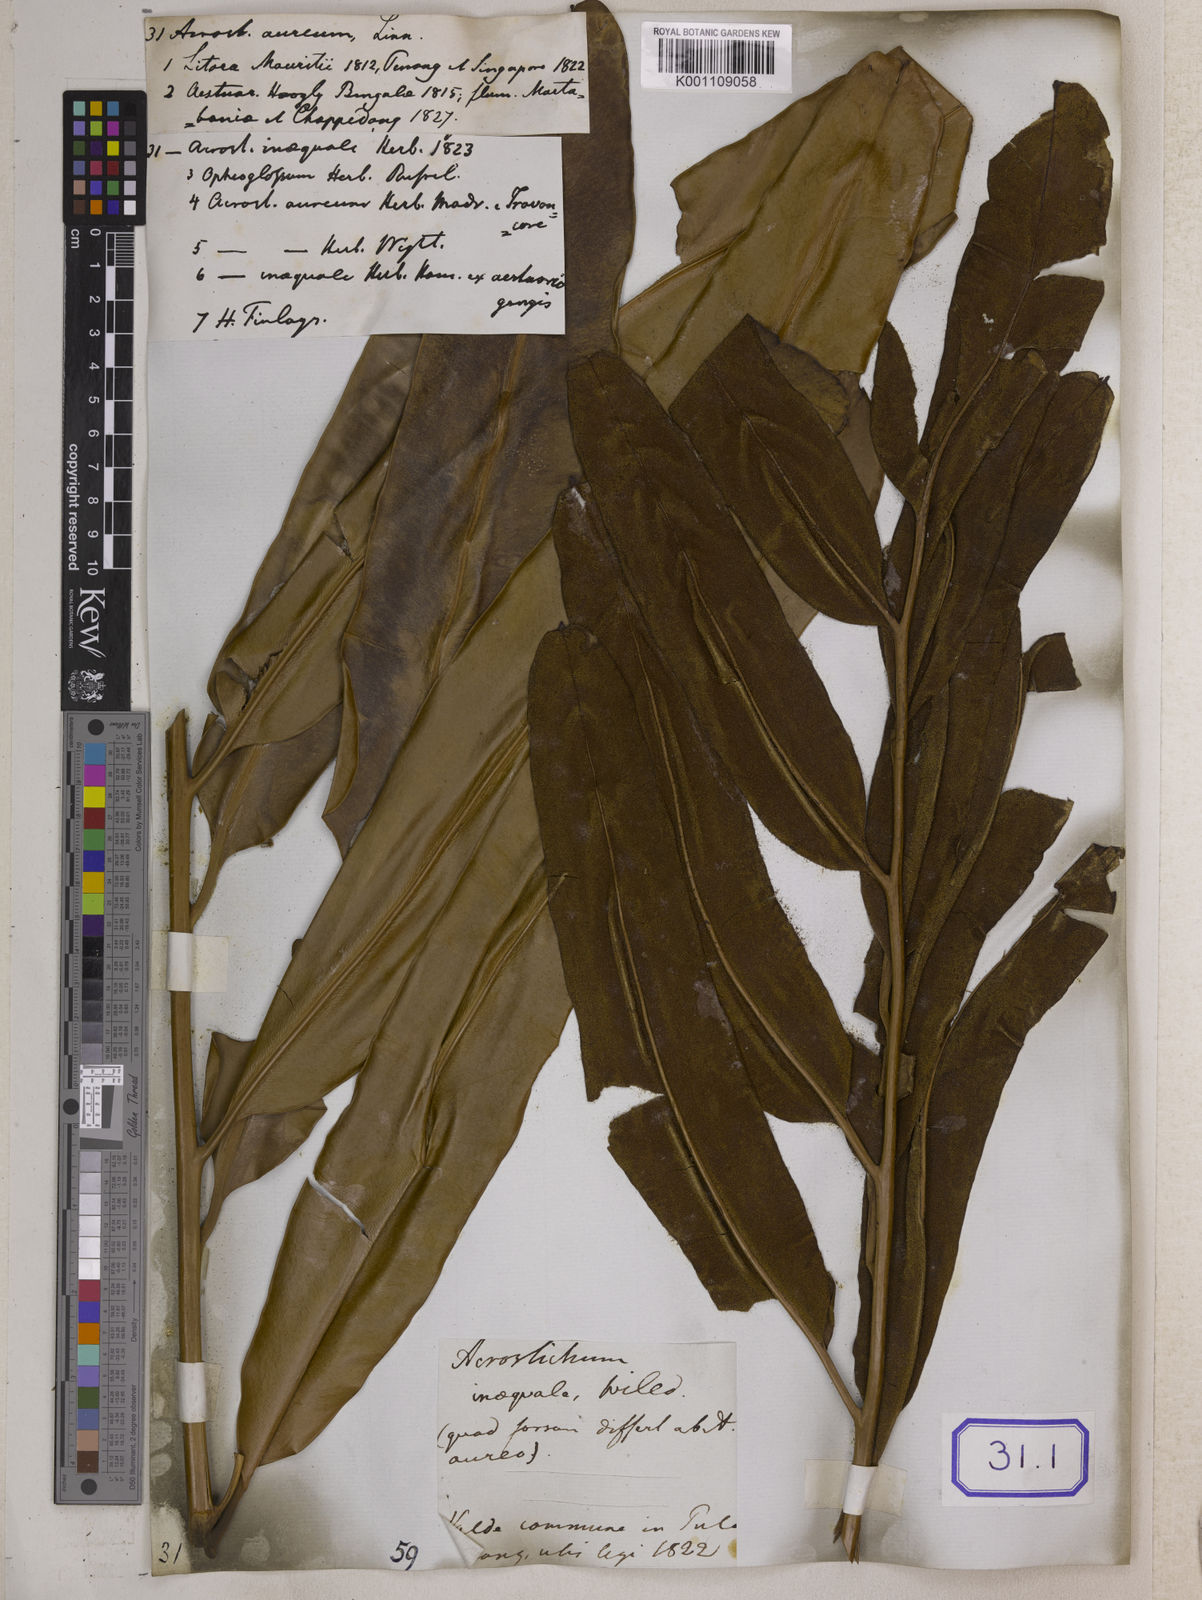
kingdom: Plantae
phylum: Tracheophyta
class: Polypodiopsida
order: Polypodiales
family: Pteridaceae
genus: Acrostichum
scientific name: Acrostichum aureum
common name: Leather fern
